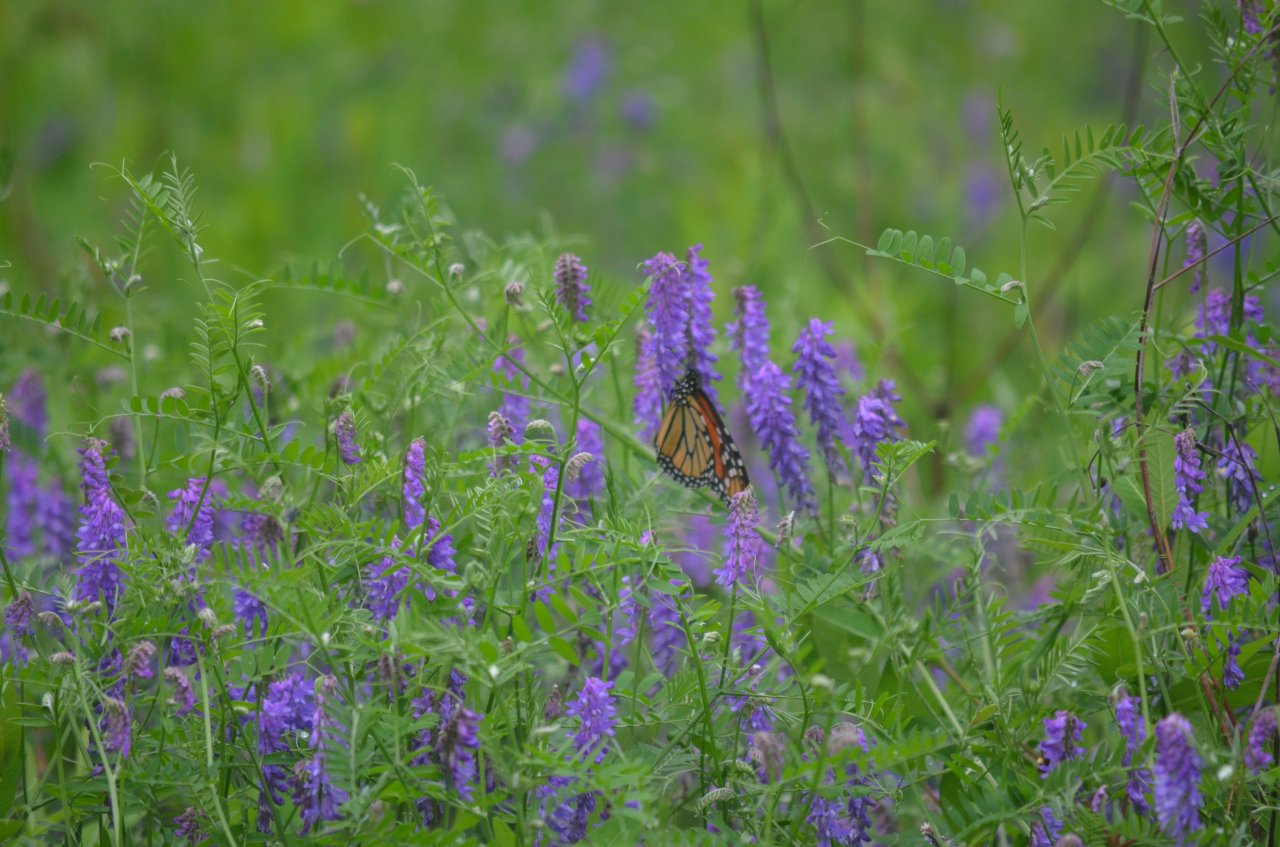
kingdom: Animalia
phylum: Arthropoda
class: Insecta
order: Lepidoptera
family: Nymphalidae
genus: Danaus
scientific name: Danaus plexippus
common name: Monarch
